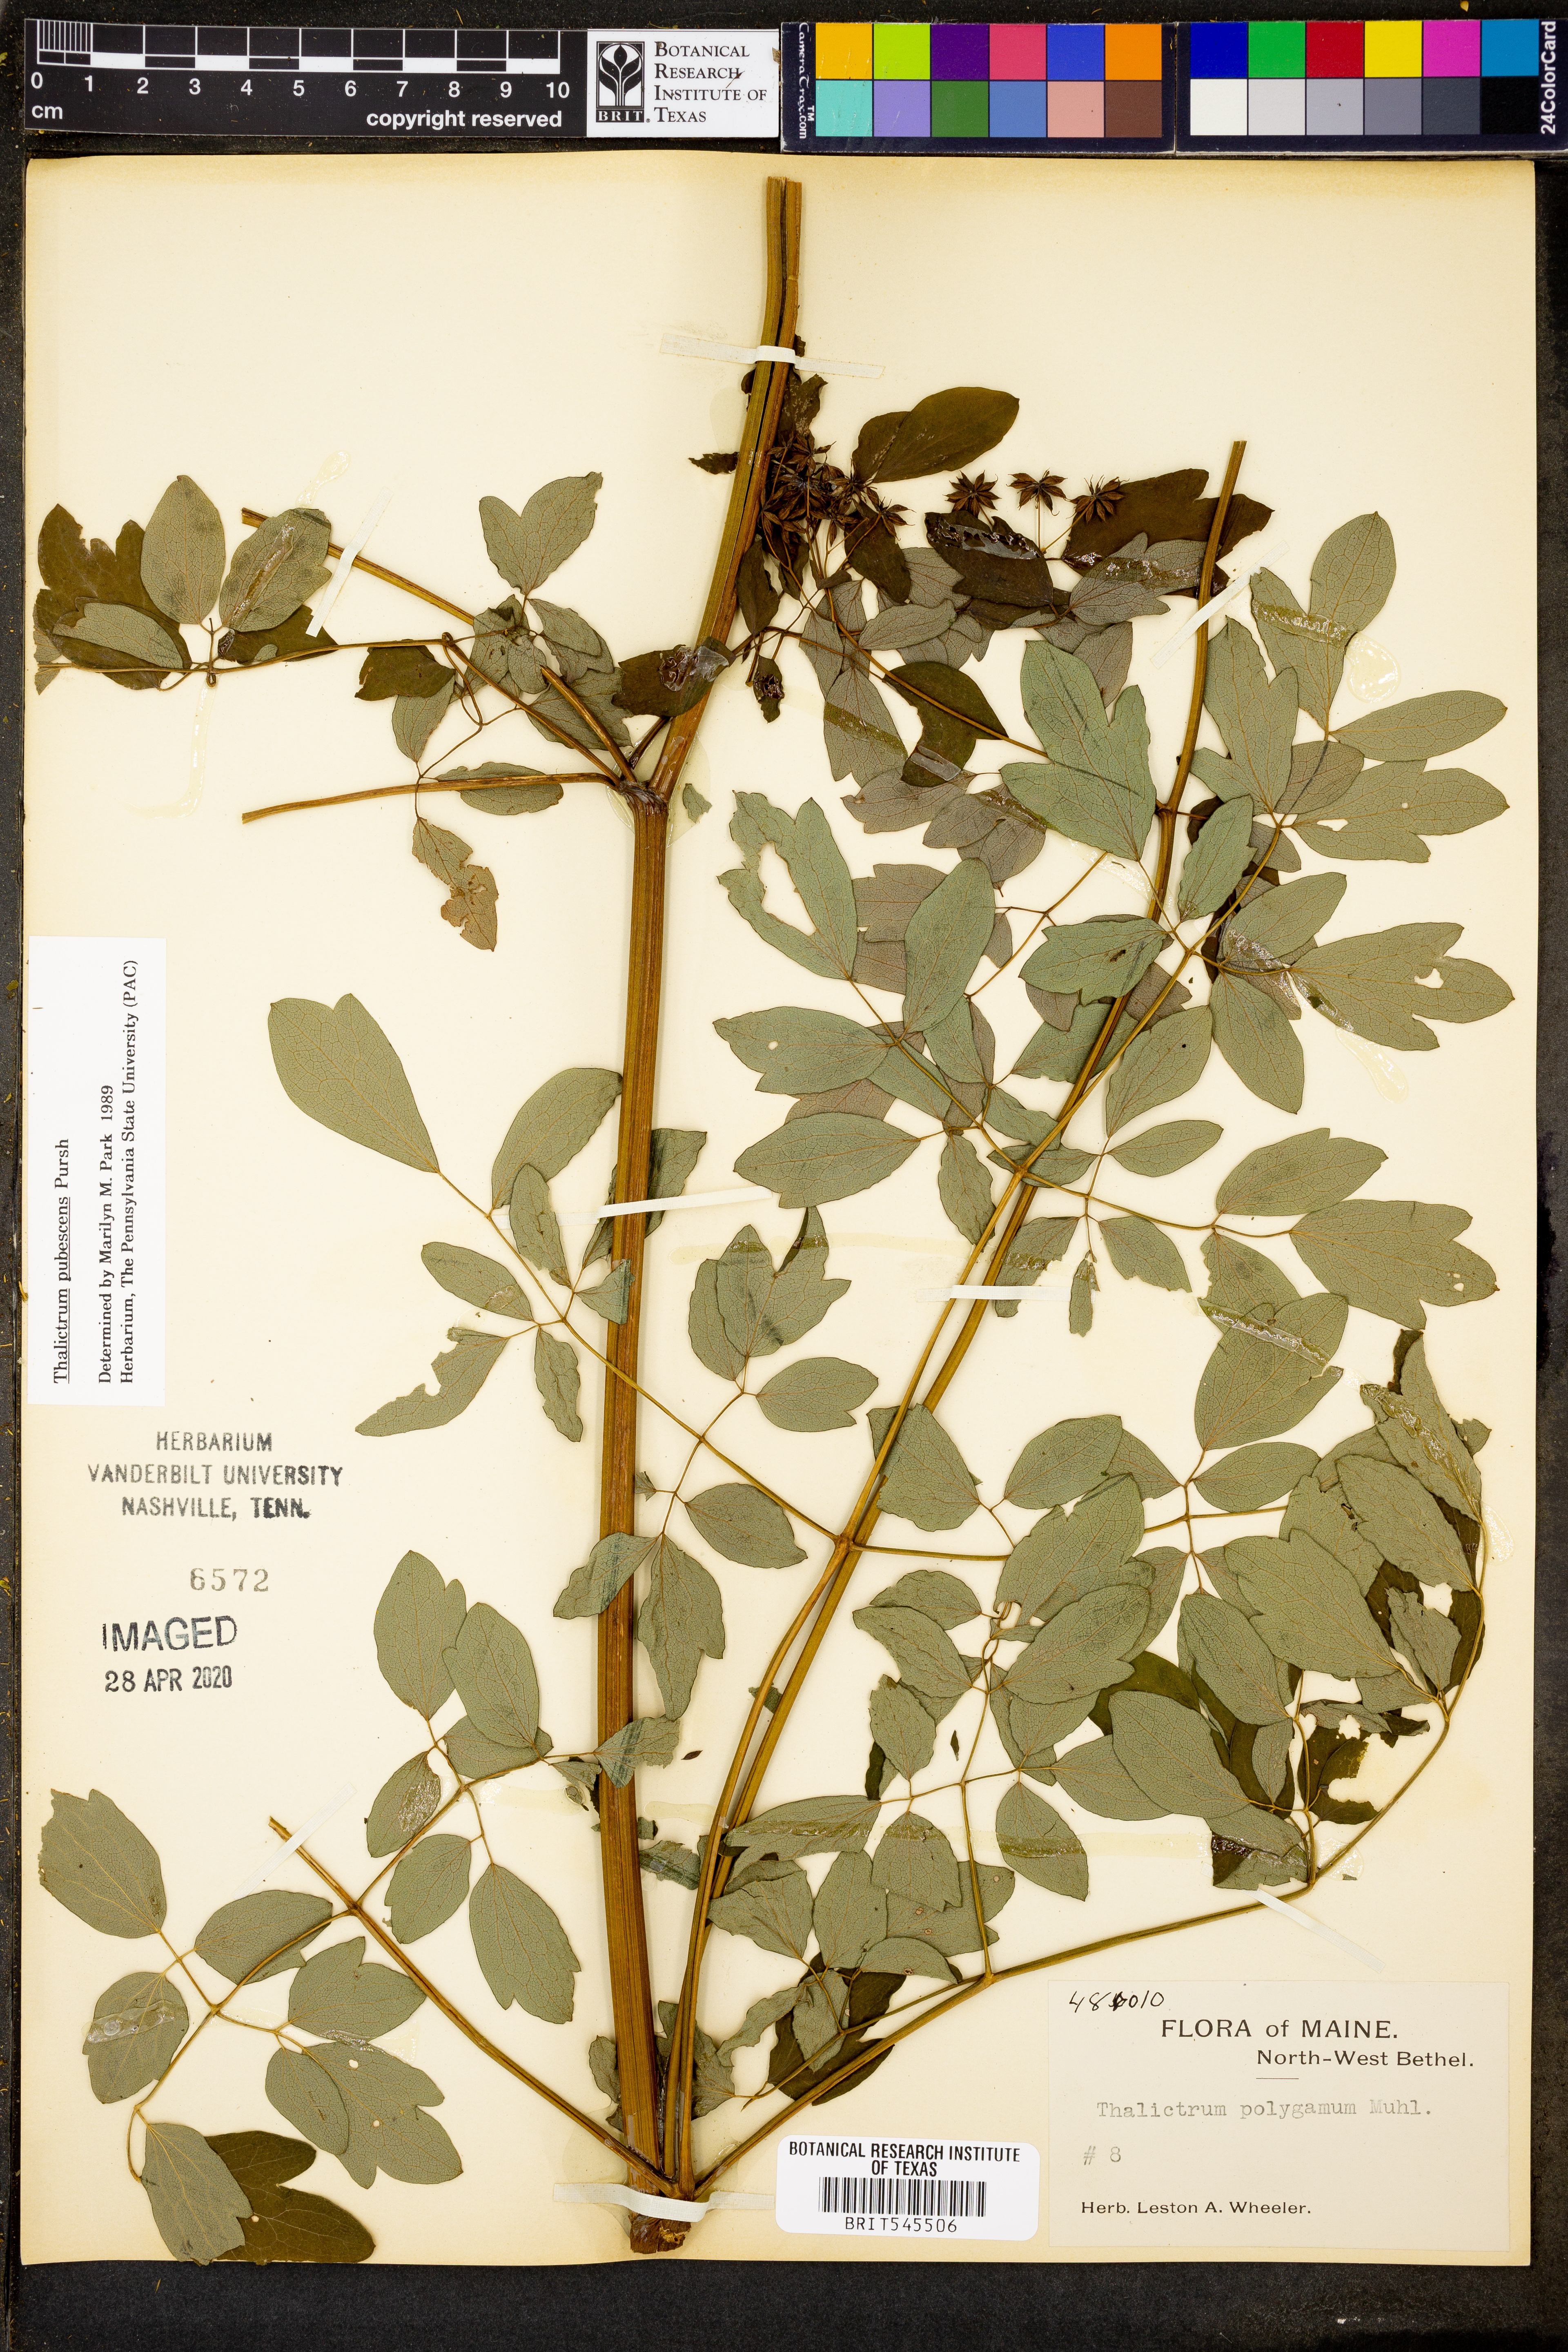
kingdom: Plantae
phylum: Tracheophyta
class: Magnoliopsida
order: Ranunculales
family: Ranunculaceae
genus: Thalictrum
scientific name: Thalictrum pubescens
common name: King-of-the-meadow
